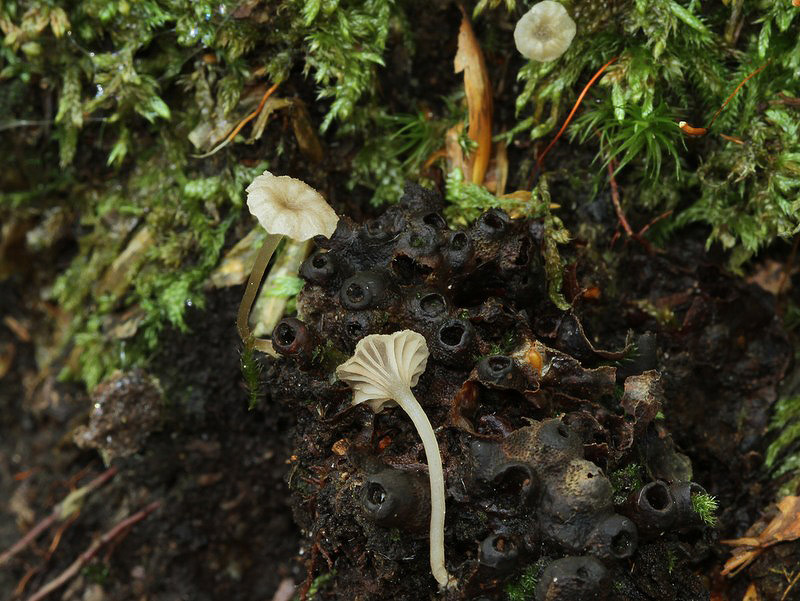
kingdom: Fungi
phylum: Basidiomycota
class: Agaricomycetes
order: Agaricales
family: Entolomataceae
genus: Entoloma
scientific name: Entoloma rhodocylix
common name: fjernbladet rødblad
